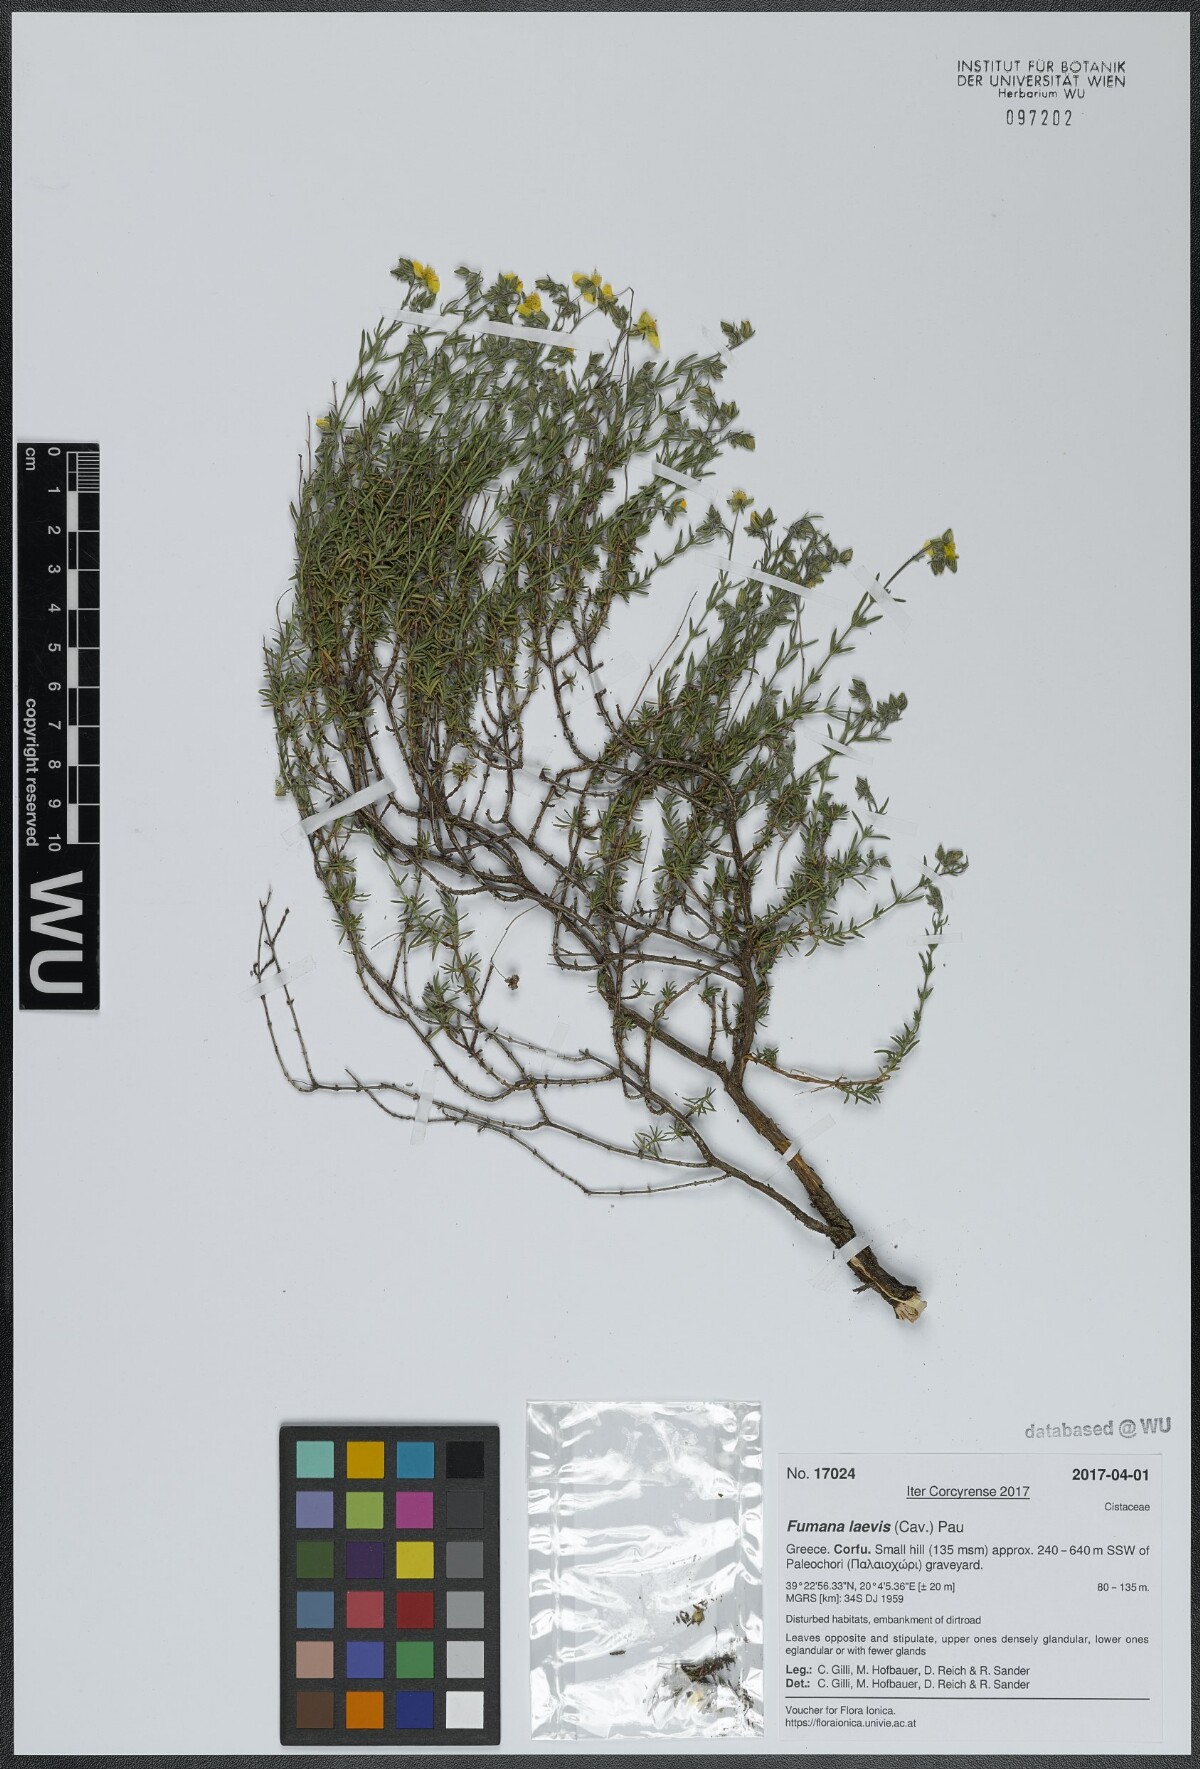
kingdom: Plantae
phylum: Tracheophyta
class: Magnoliopsida
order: Malvales
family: Cistaceae
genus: Fumana
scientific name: Fumana laevis
